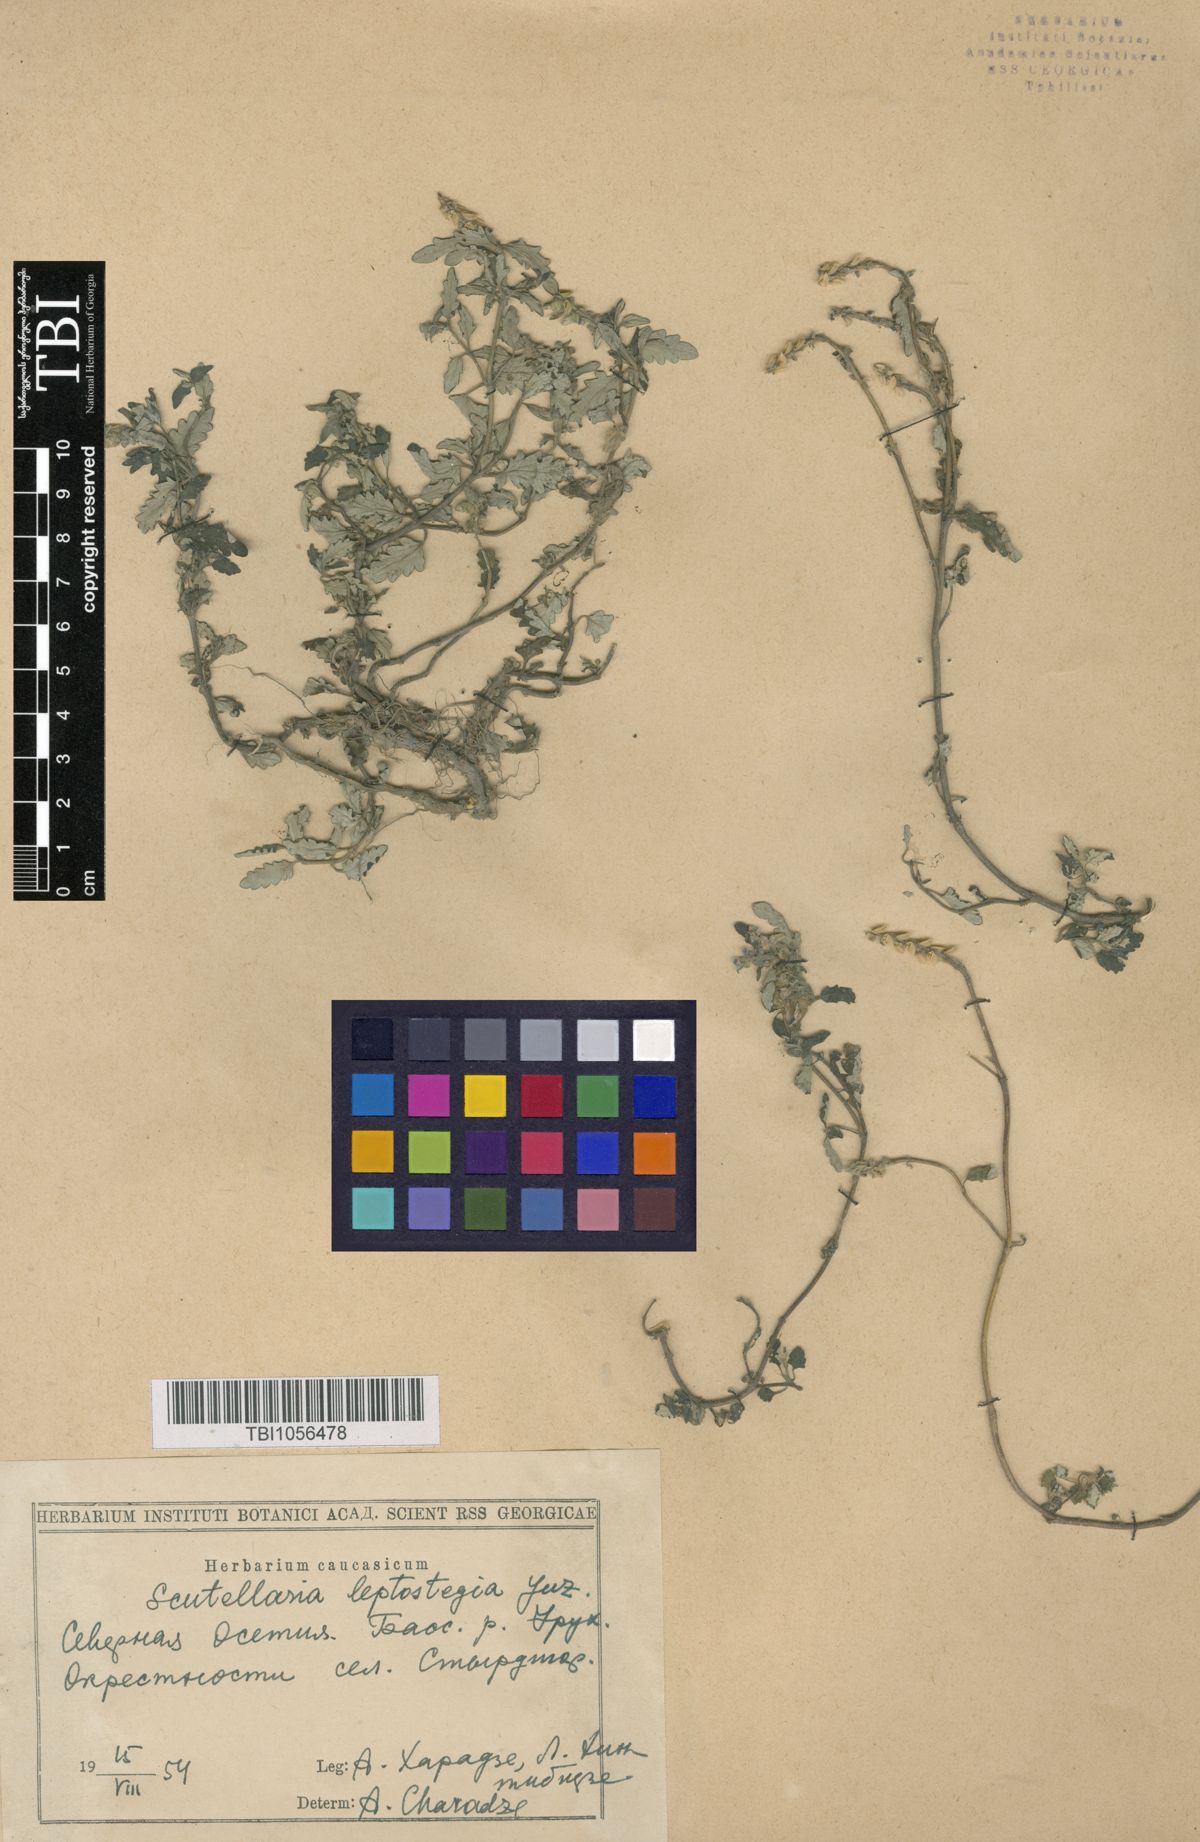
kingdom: Plantae
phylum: Tracheophyta
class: Magnoliopsida
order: Lamiales
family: Lamiaceae
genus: Scutellaria
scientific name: Scutellaria leptostegia
